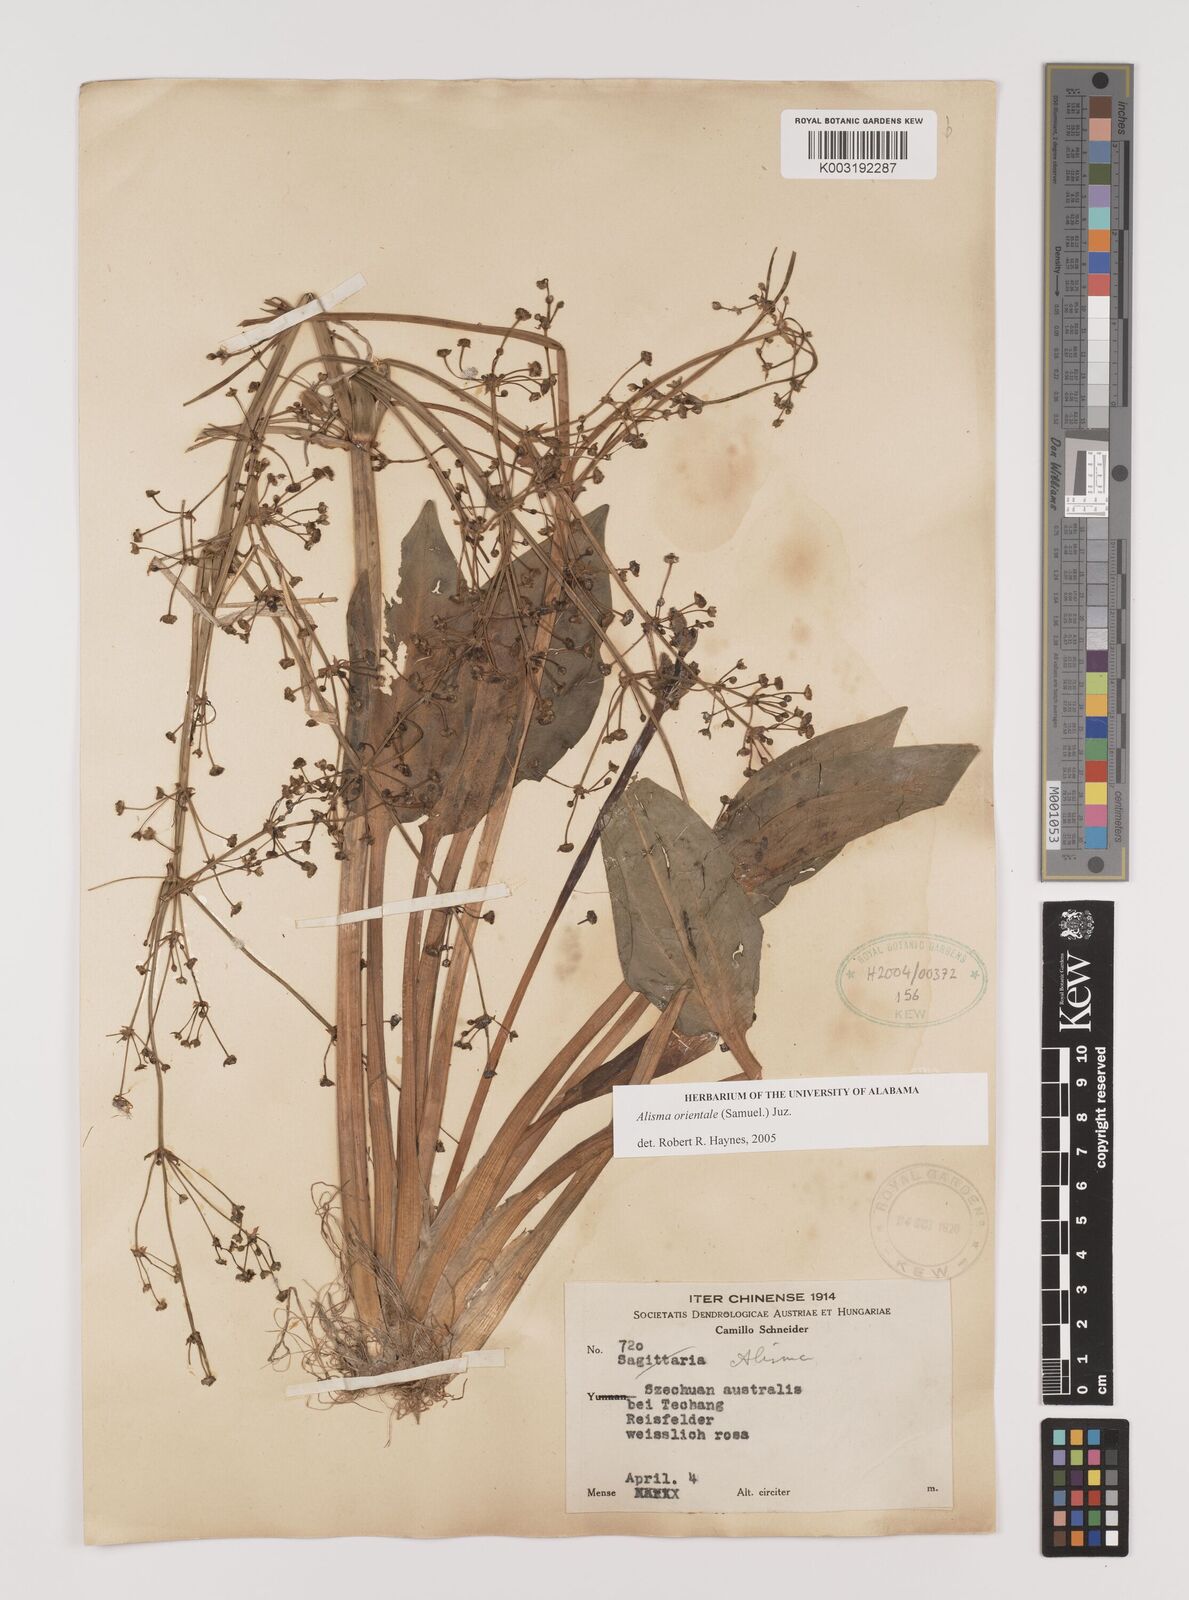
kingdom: Plantae
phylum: Tracheophyta
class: Liliopsida
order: Alismatales
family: Alismataceae
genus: Alisma
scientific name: Alisma plantago-aquatica
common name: Water-plantain
